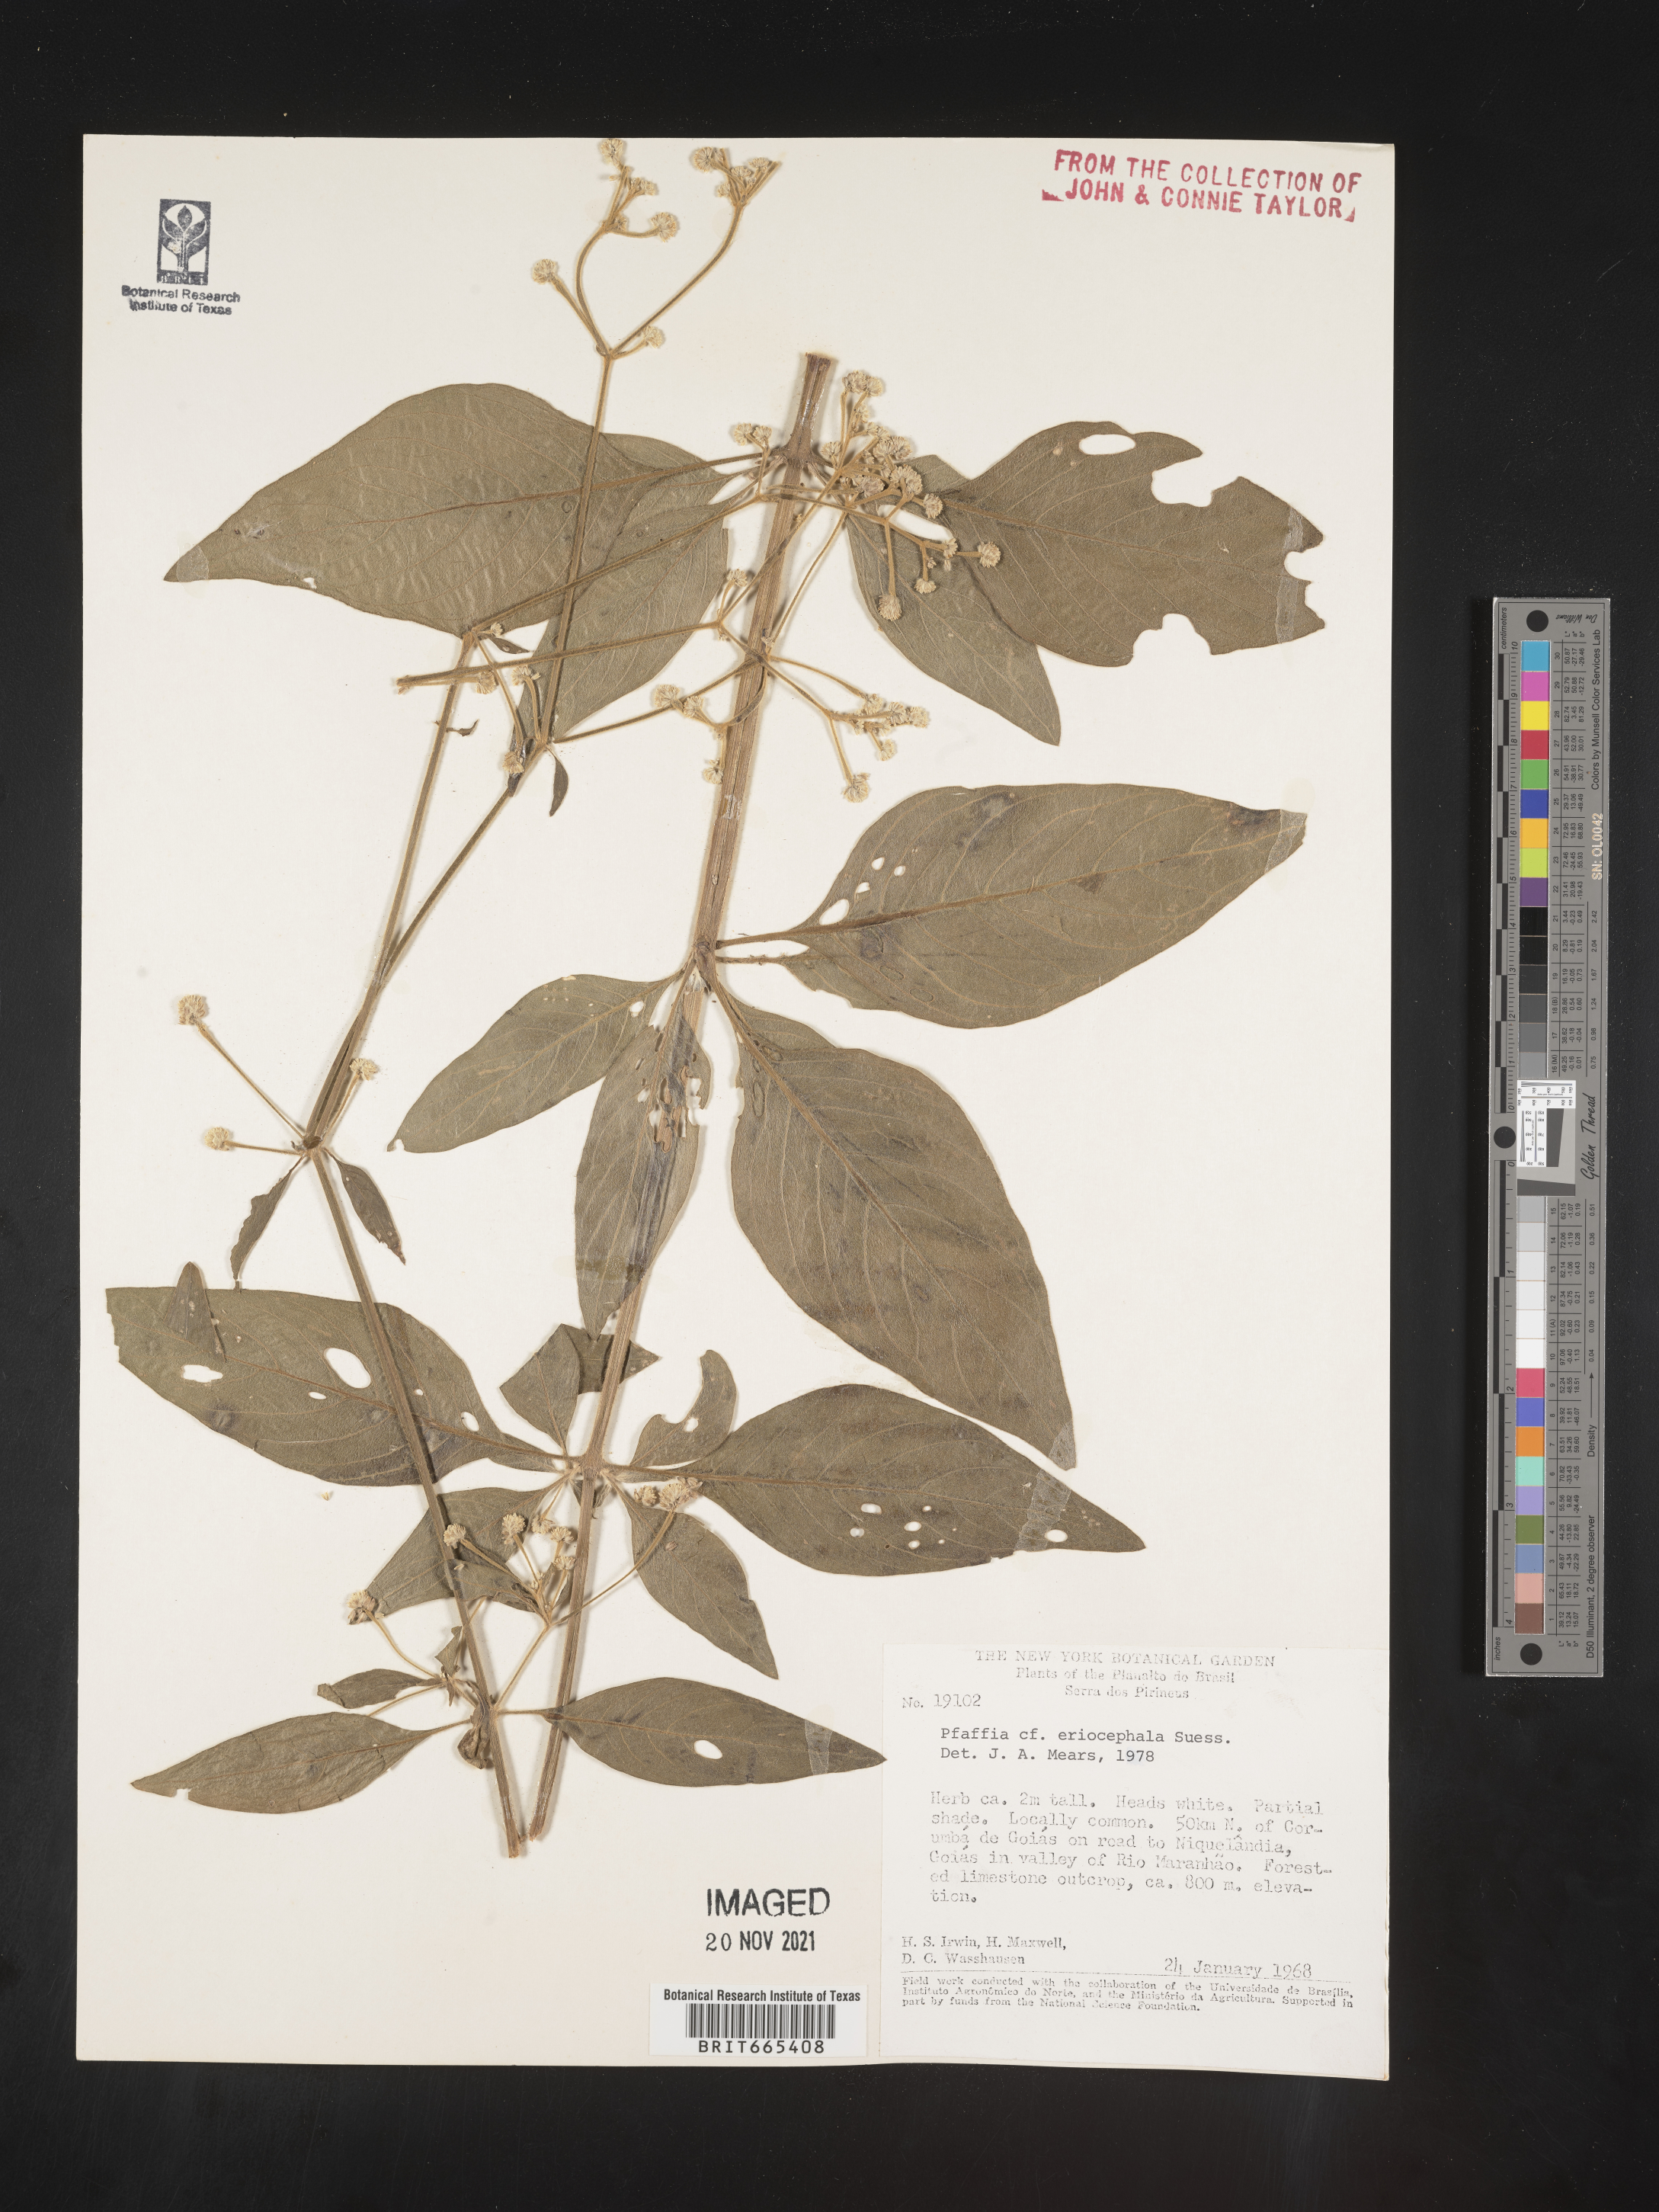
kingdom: Plantae
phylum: Tracheophyta
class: Magnoliopsida
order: Caryophyllales
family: Amaranthaceae
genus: Pfaffia
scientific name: Pfaffia
